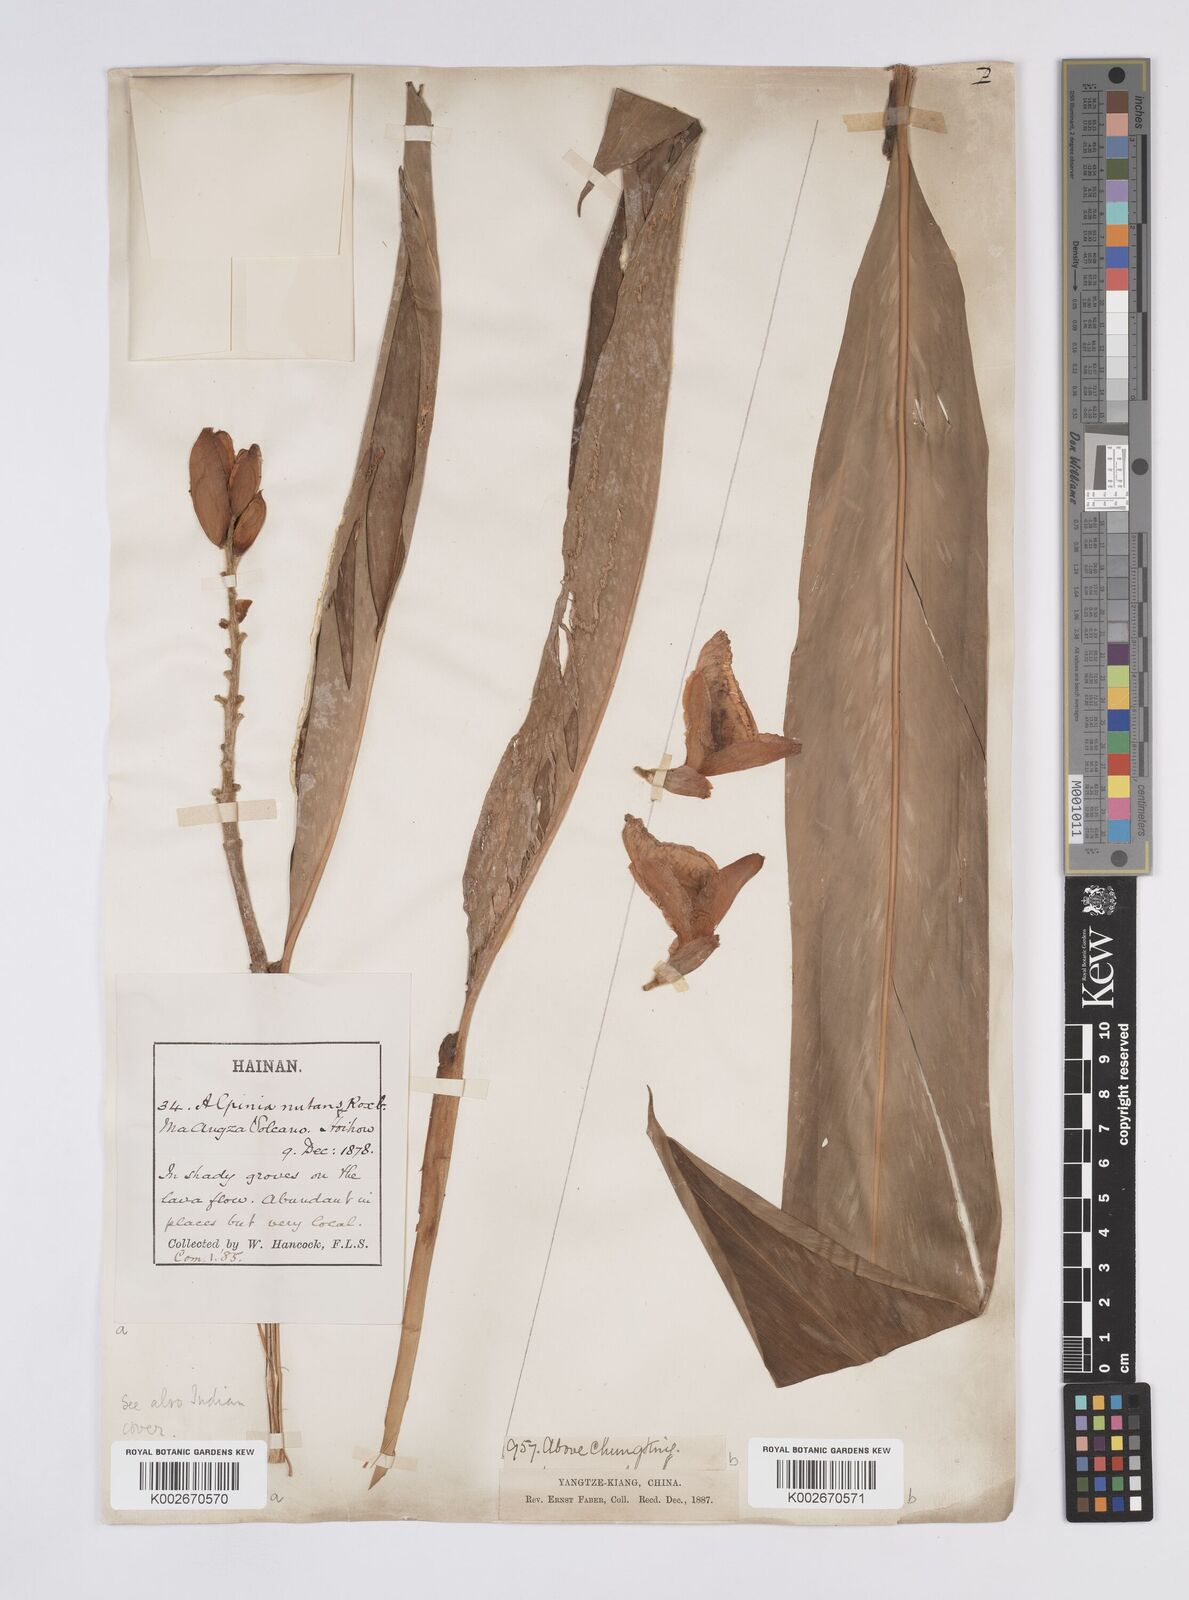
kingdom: Plantae
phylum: Tracheophyta
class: Liliopsida
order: Zingiberales
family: Zingiberaceae
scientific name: Zingiberaceae
